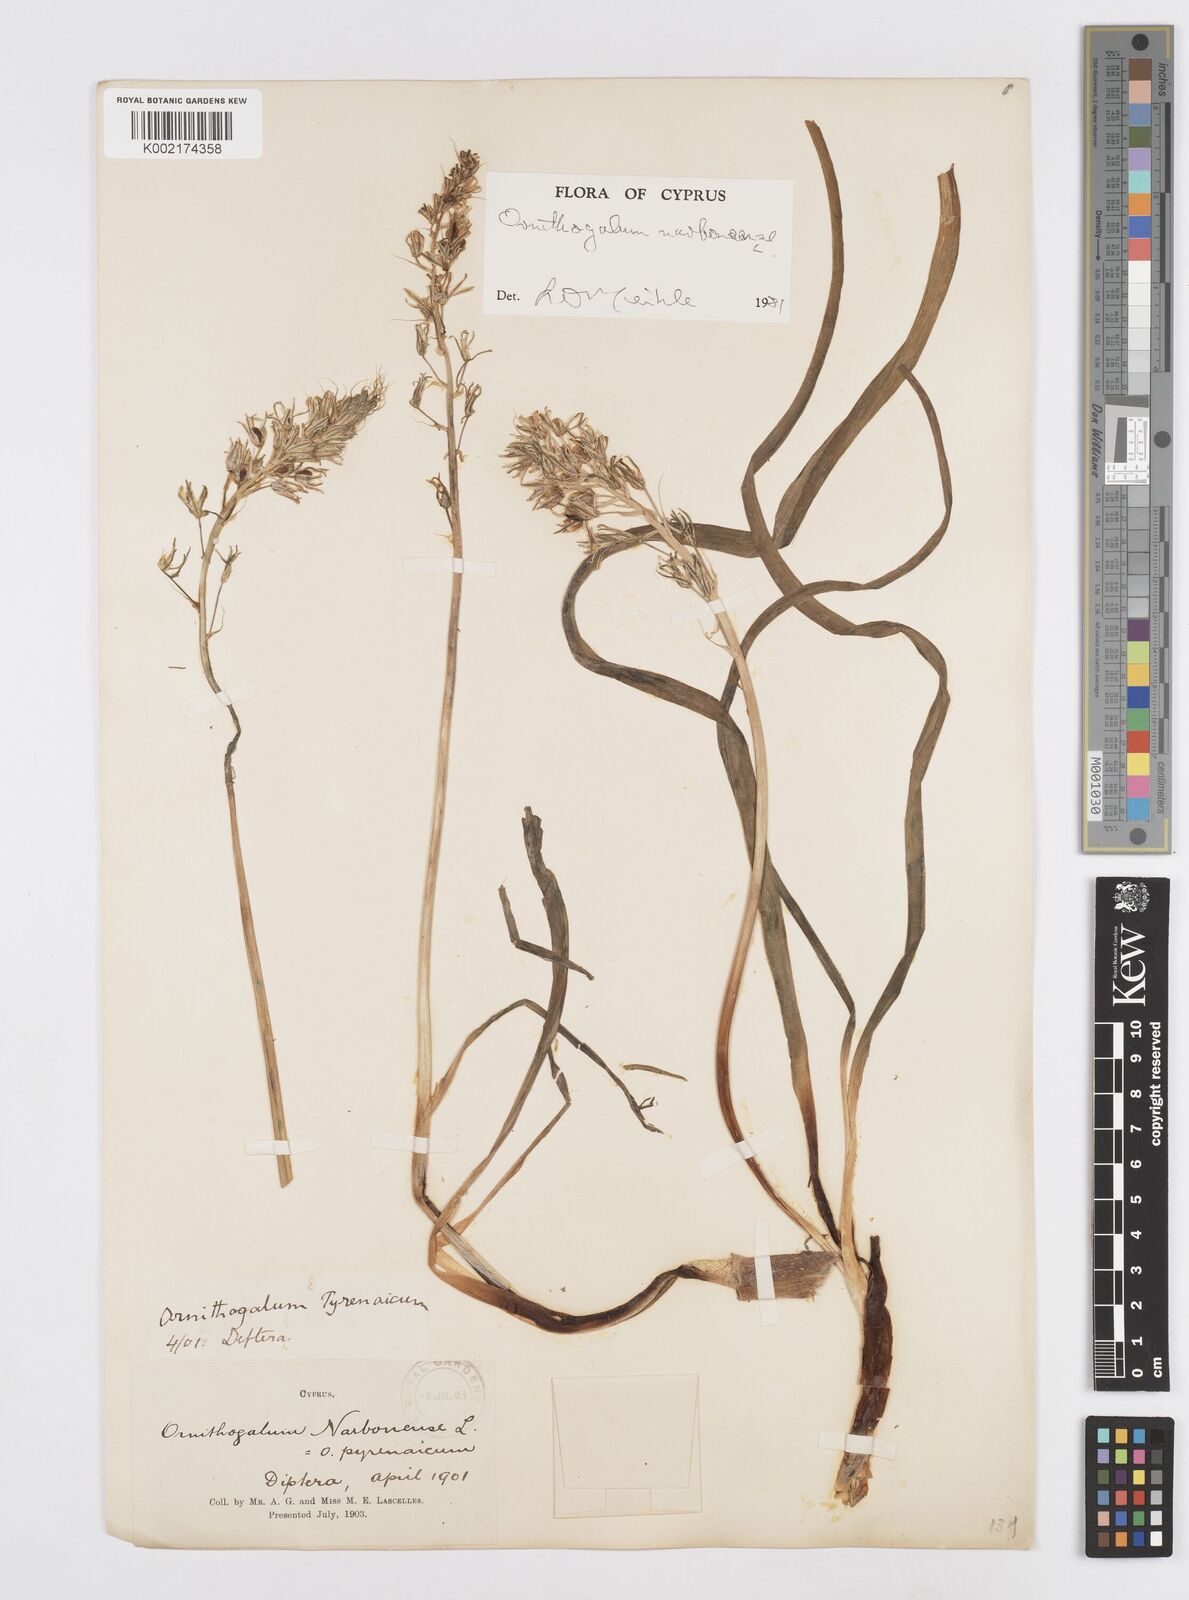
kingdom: Plantae
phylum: Tracheophyta
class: Liliopsida
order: Asparagales
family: Asparagaceae
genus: Ornithogalum
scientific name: Ornithogalum narbonense
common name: Bath-asparagus
